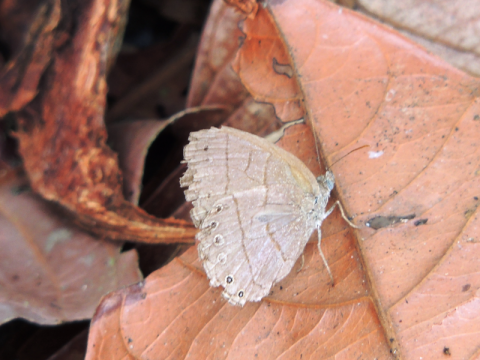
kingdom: Animalia
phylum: Arthropoda
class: Insecta
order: Lepidoptera
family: Nymphalidae
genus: Paryphthimoides
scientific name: Paryphthimoides poltys
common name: Poltys satyr
